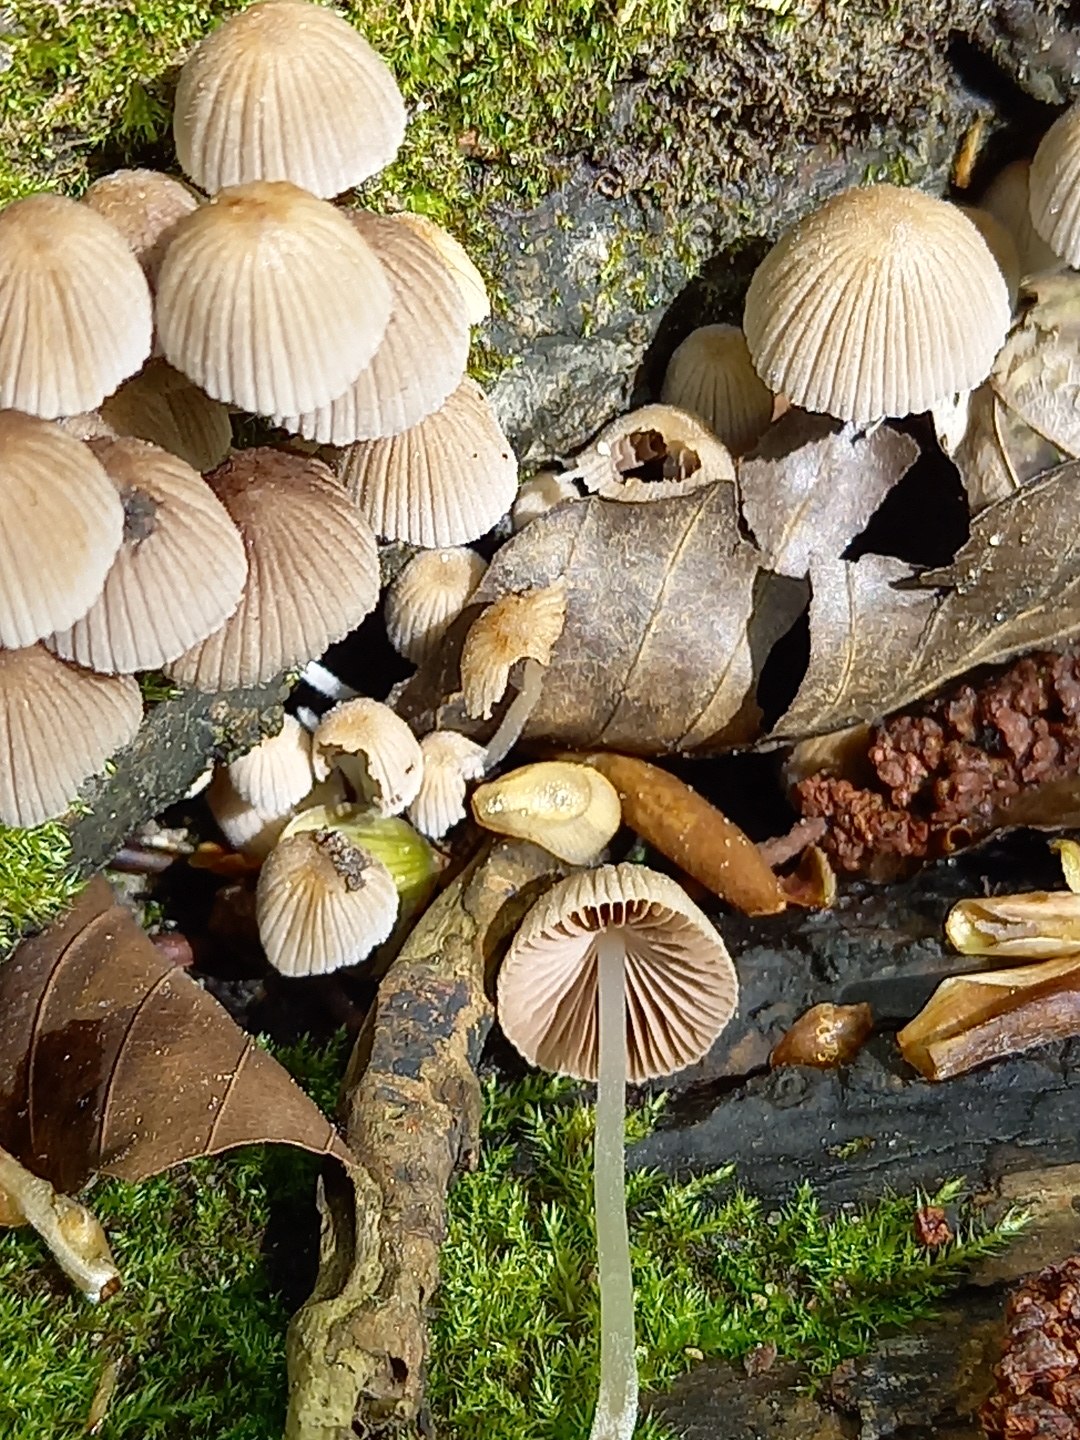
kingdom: Fungi
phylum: Basidiomycota
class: Agaricomycetes
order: Agaricales
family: Psathyrellaceae
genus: Coprinellus
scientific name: Coprinellus disseminatus
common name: bredsået blækhat
